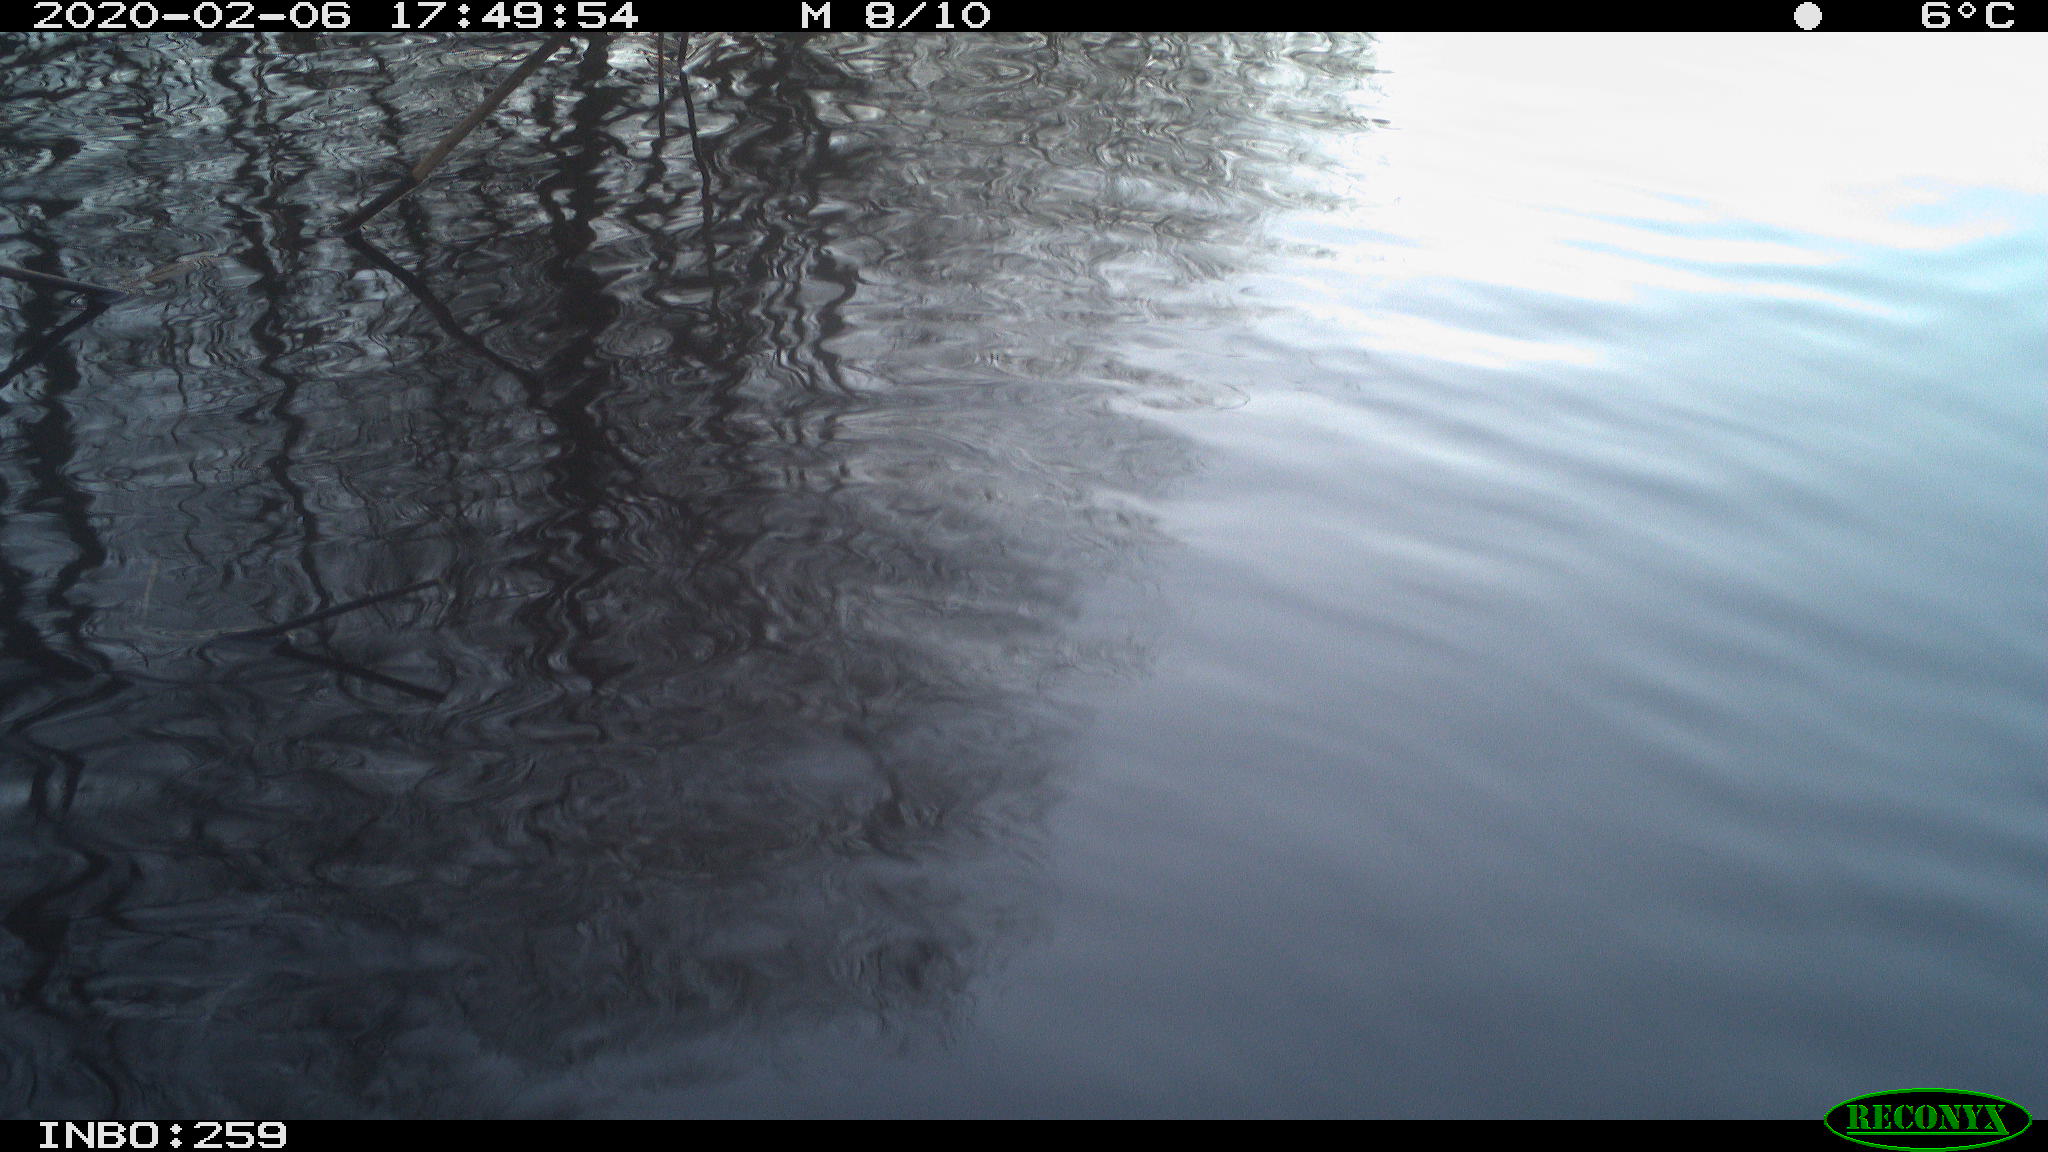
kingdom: Animalia
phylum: Chordata
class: Aves
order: Gruiformes
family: Rallidae
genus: Gallinula
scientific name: Gallinula chloropus
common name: Common moorhen
